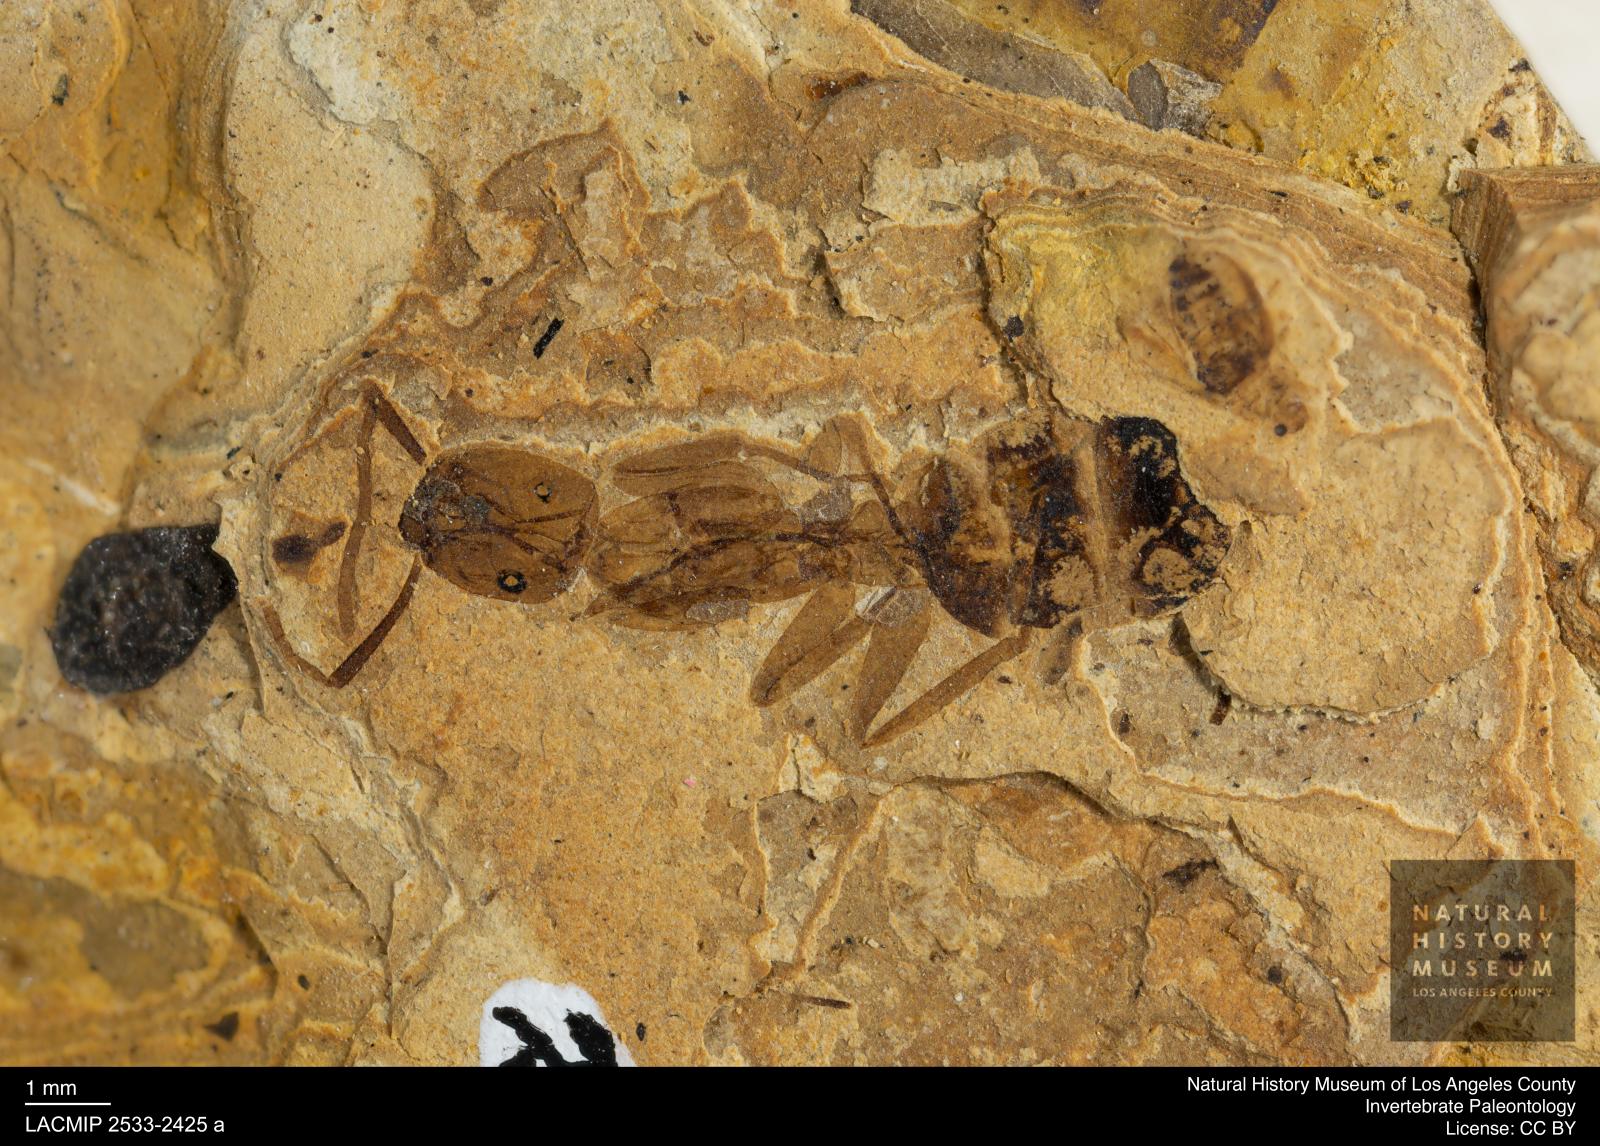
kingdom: Animalia
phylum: Arthropoda
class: Insecta
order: Hymenoptera
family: Formicidae
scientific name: Formicidae
